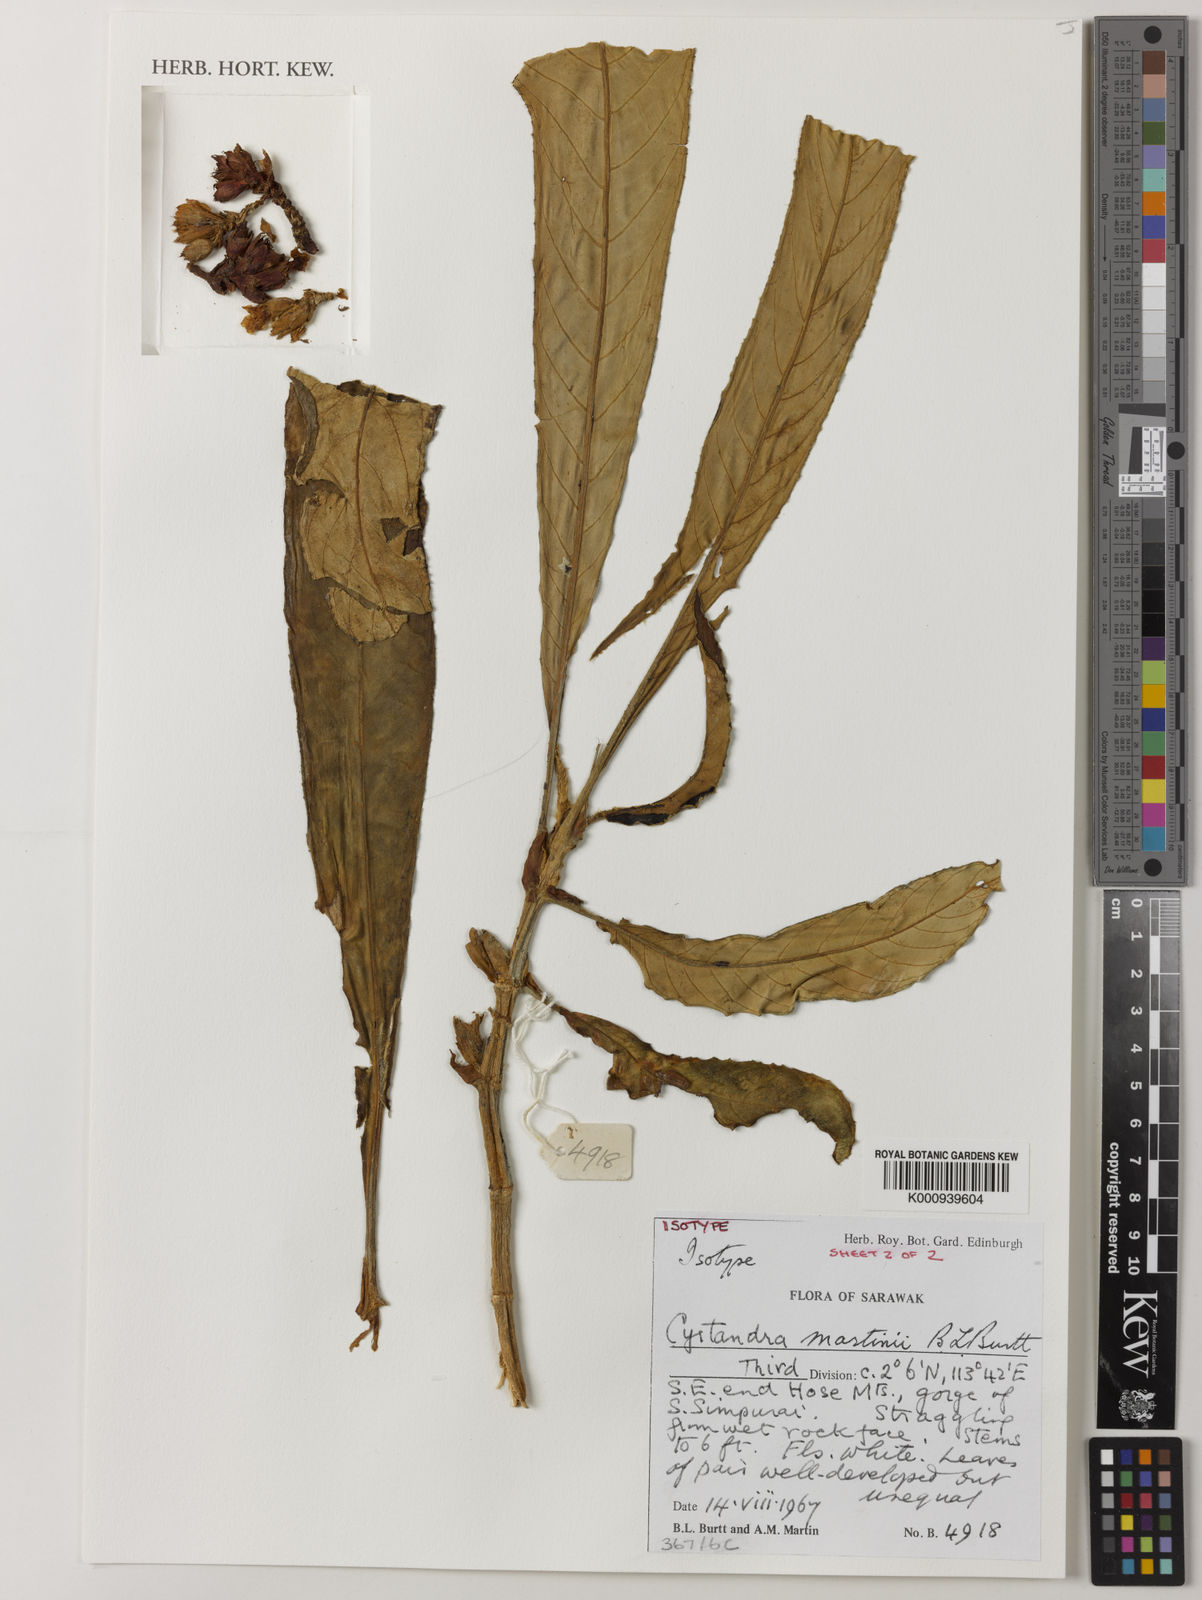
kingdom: Plantae
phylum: Tracheophyta
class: Magnoliopsida
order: Lamiales
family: Gesneriaceae
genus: Cyrtandra
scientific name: Cyrtandra martini
